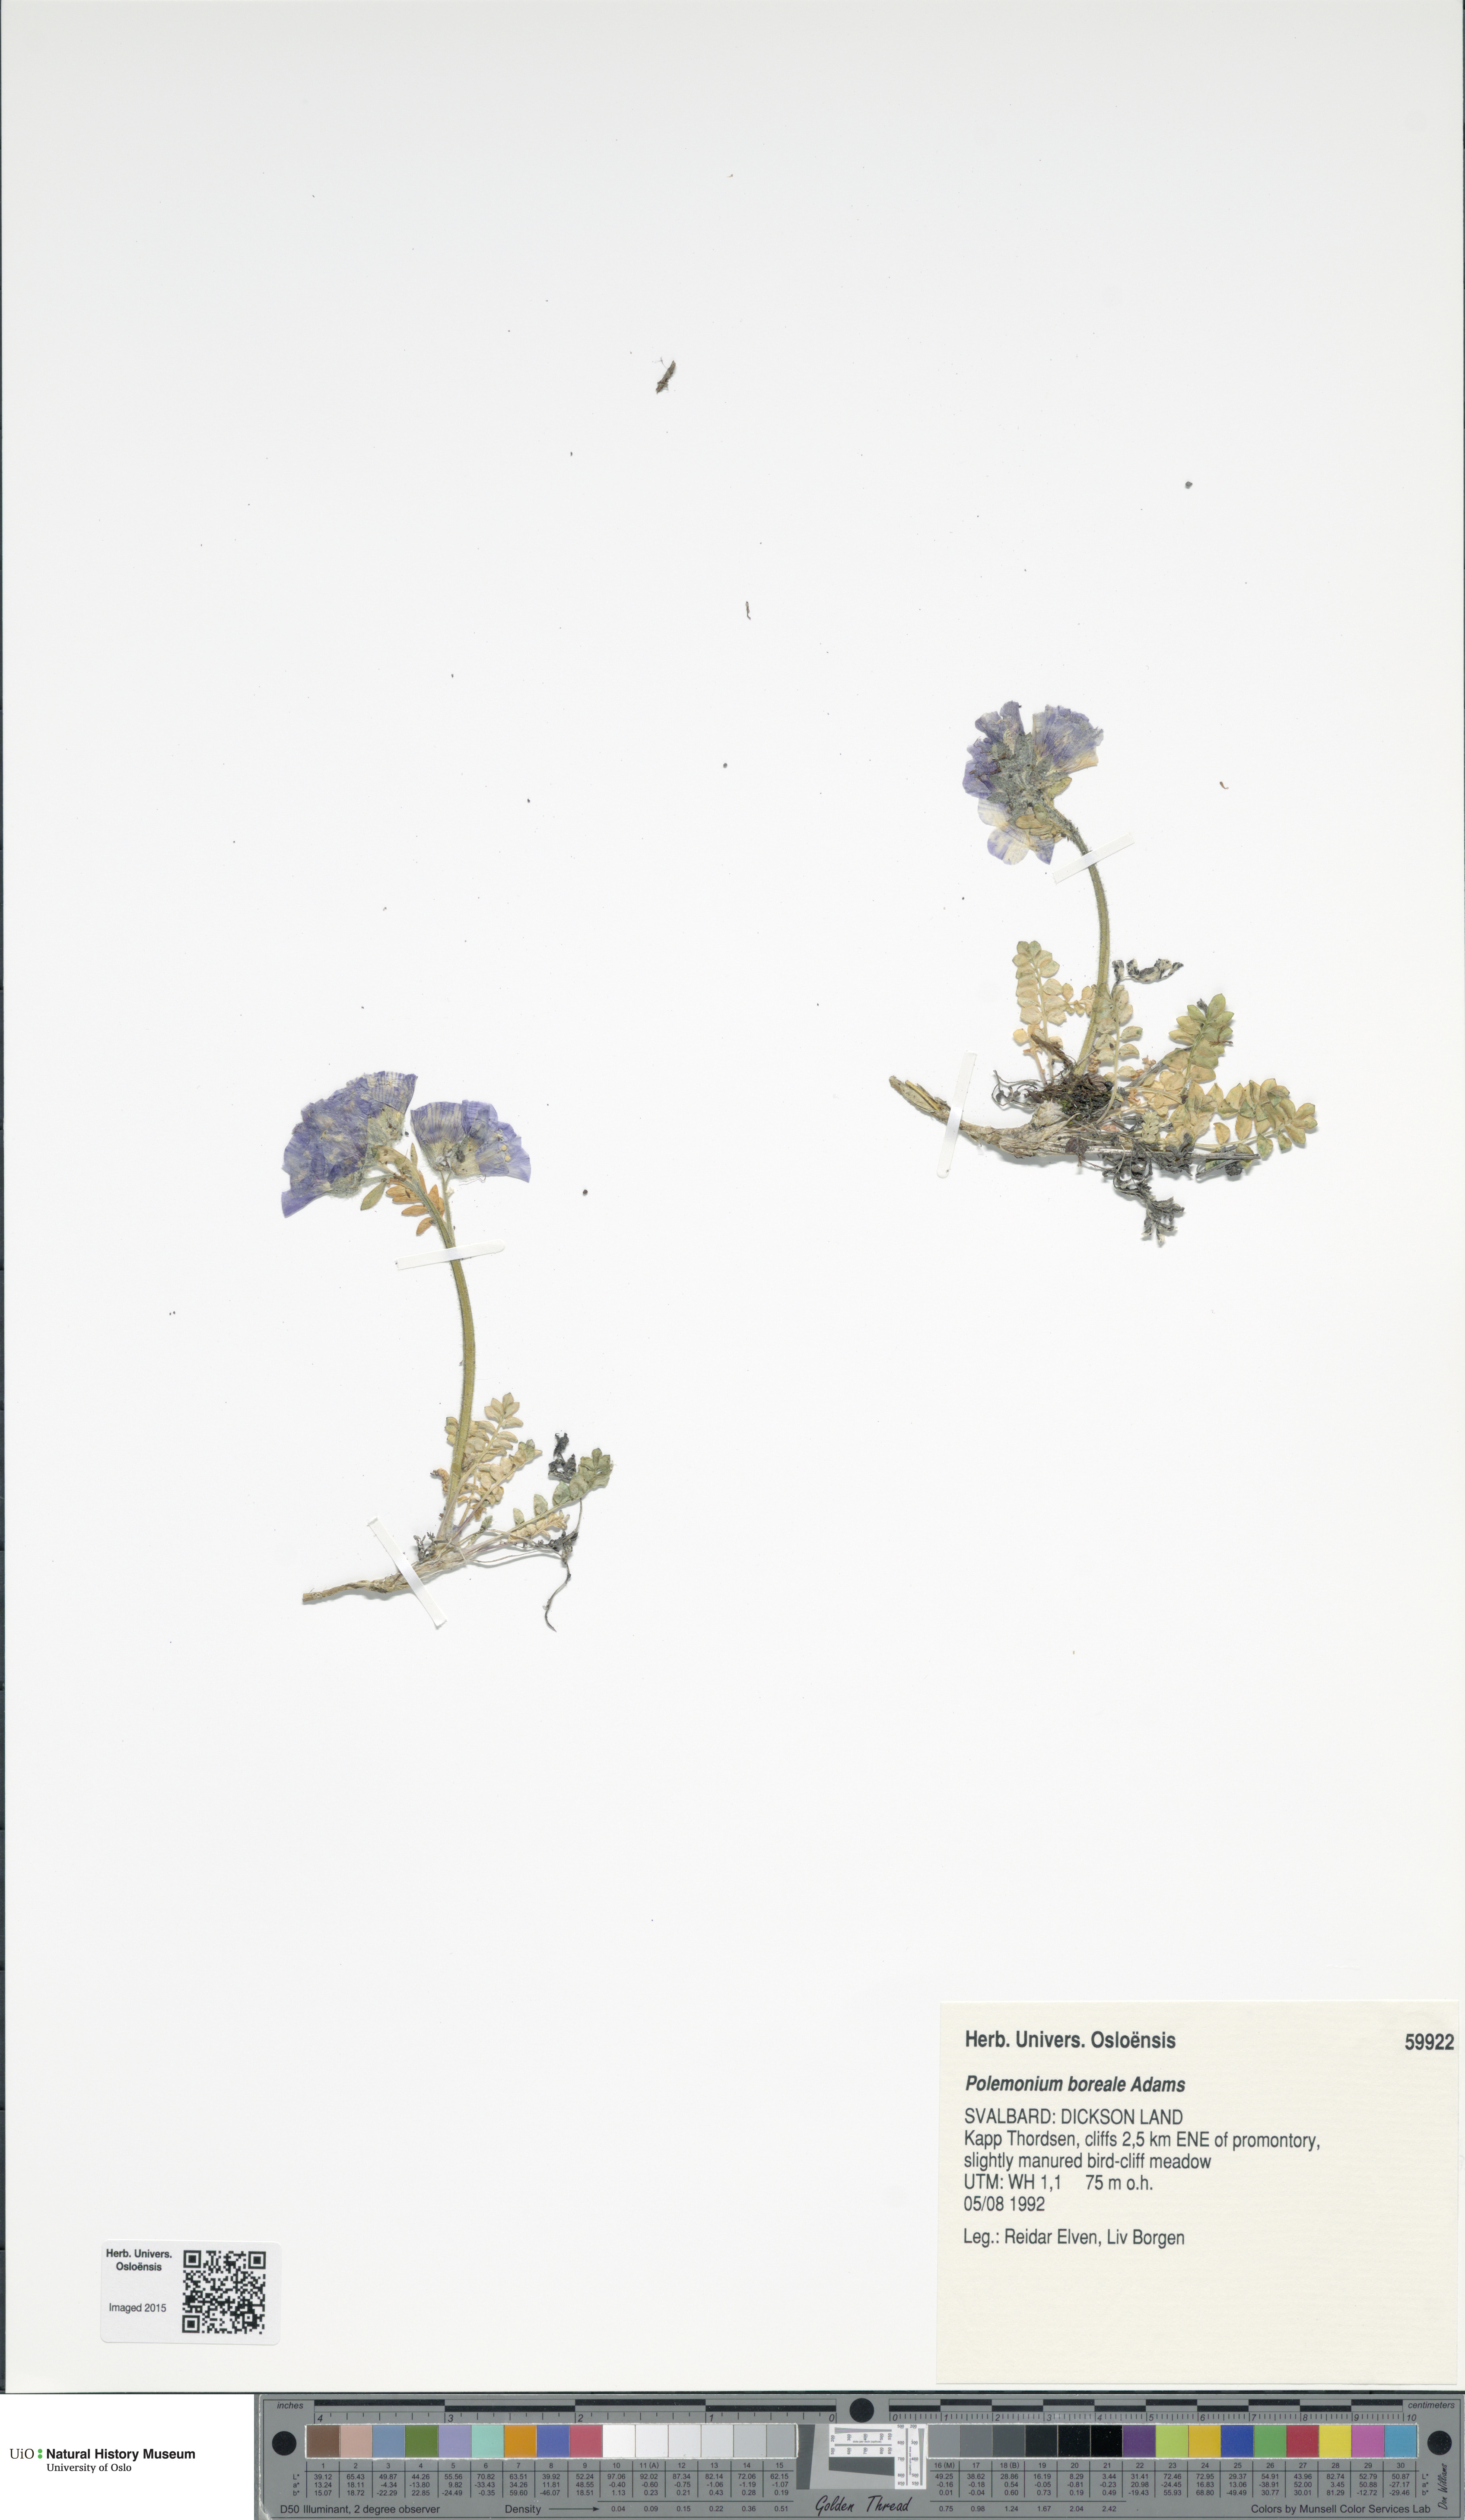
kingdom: Plantae
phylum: Tracheophyta
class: Magnoliopsida
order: Ericales
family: Polemoniaceae
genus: Polemonium
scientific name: Polemonium boreale
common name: Boreal jacob's-ladder
